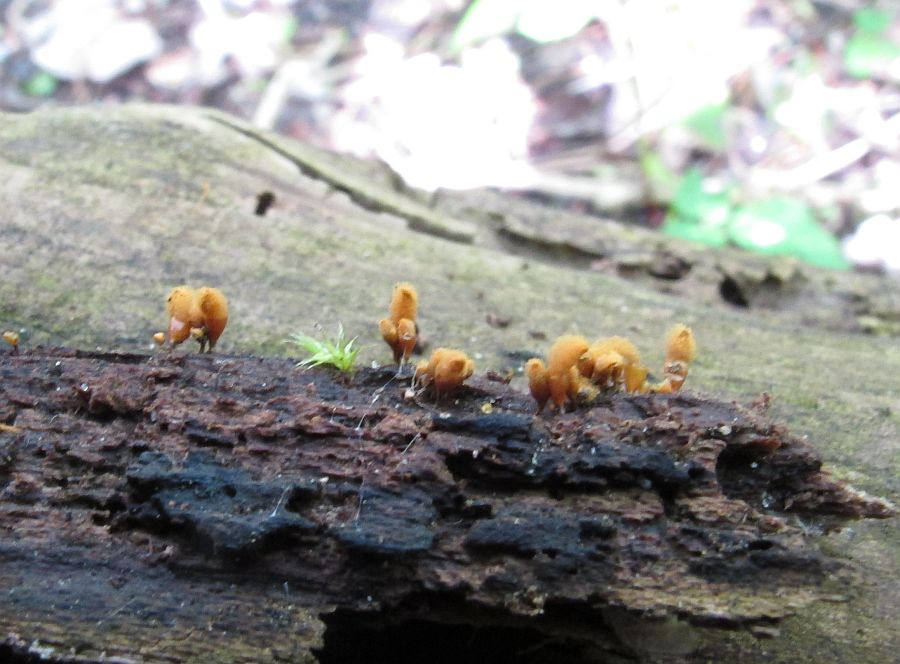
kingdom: Protozoa
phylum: Mycetozoa
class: Myxomycetes
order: Trichiales
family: Arcyriaceae
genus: Hemitrichia
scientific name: Hemitrichia clavata
